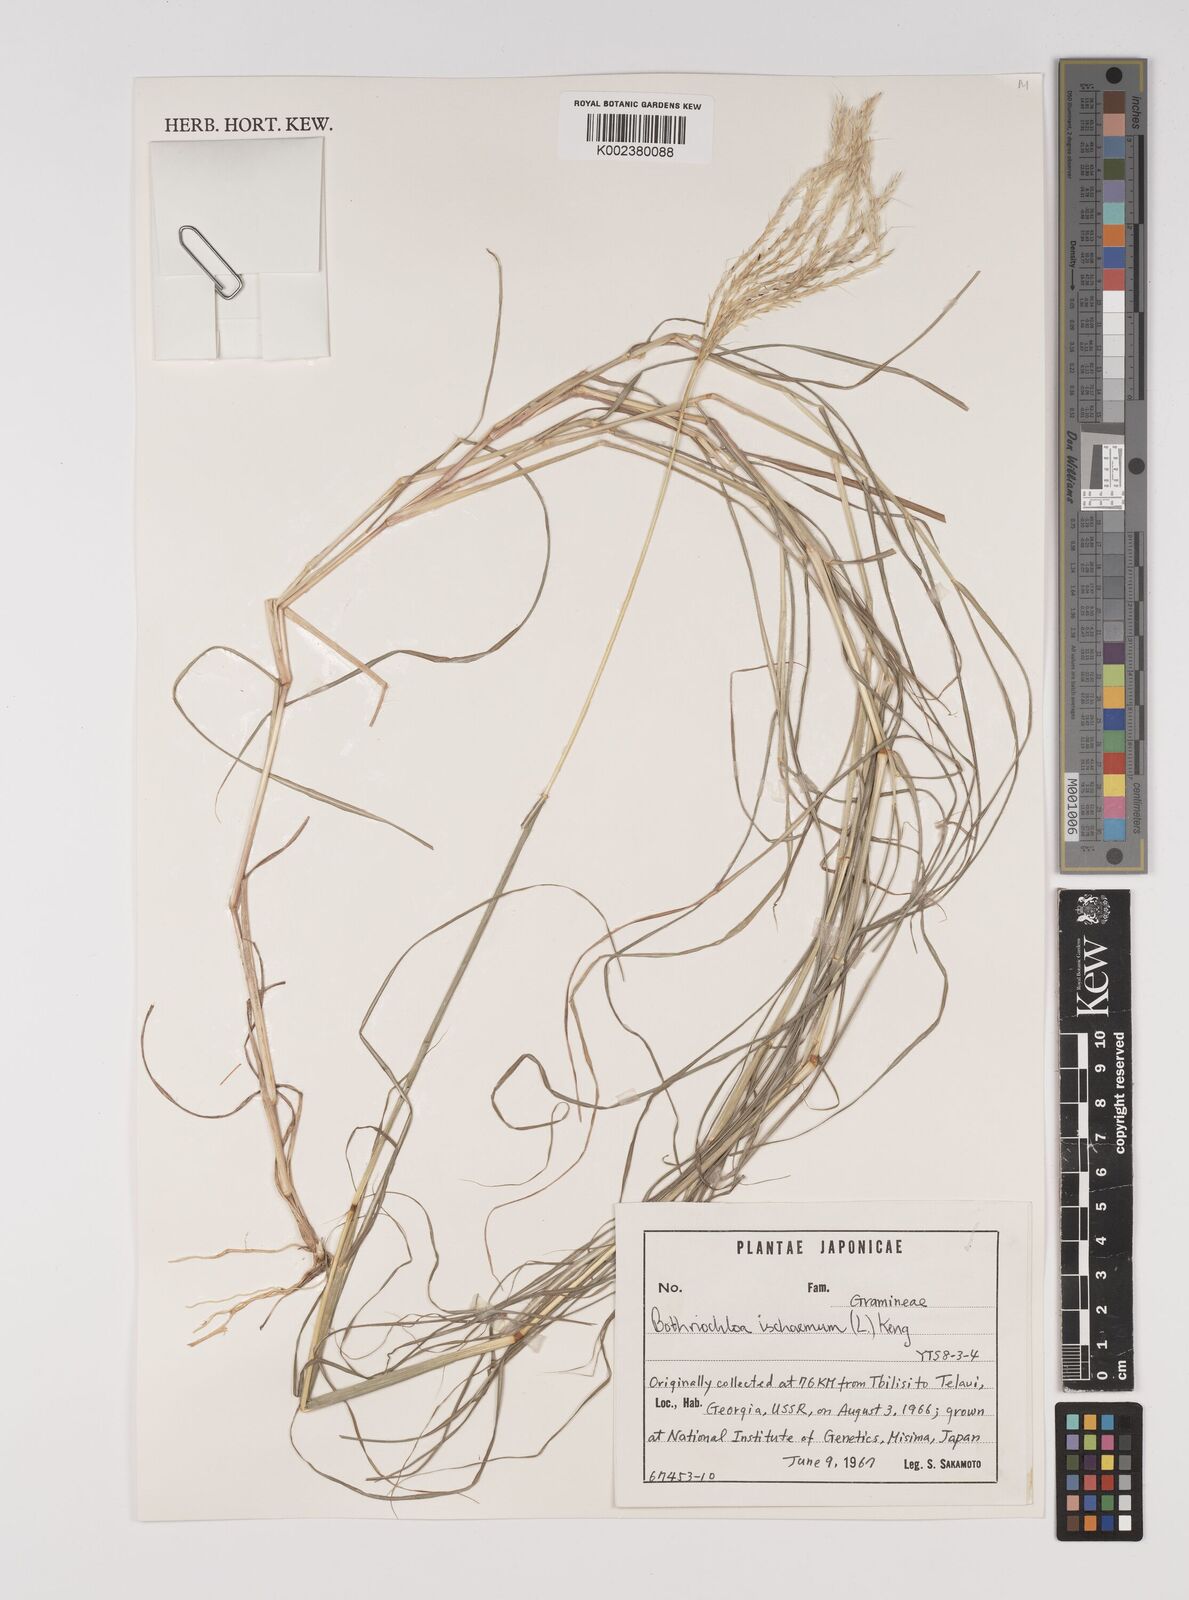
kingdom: Plantae
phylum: Tracheophyta
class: Liliopsida
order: Poales
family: Poaceae
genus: Bothriochloa
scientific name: Bothriochloa ischaemum
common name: Yellow bluestem
